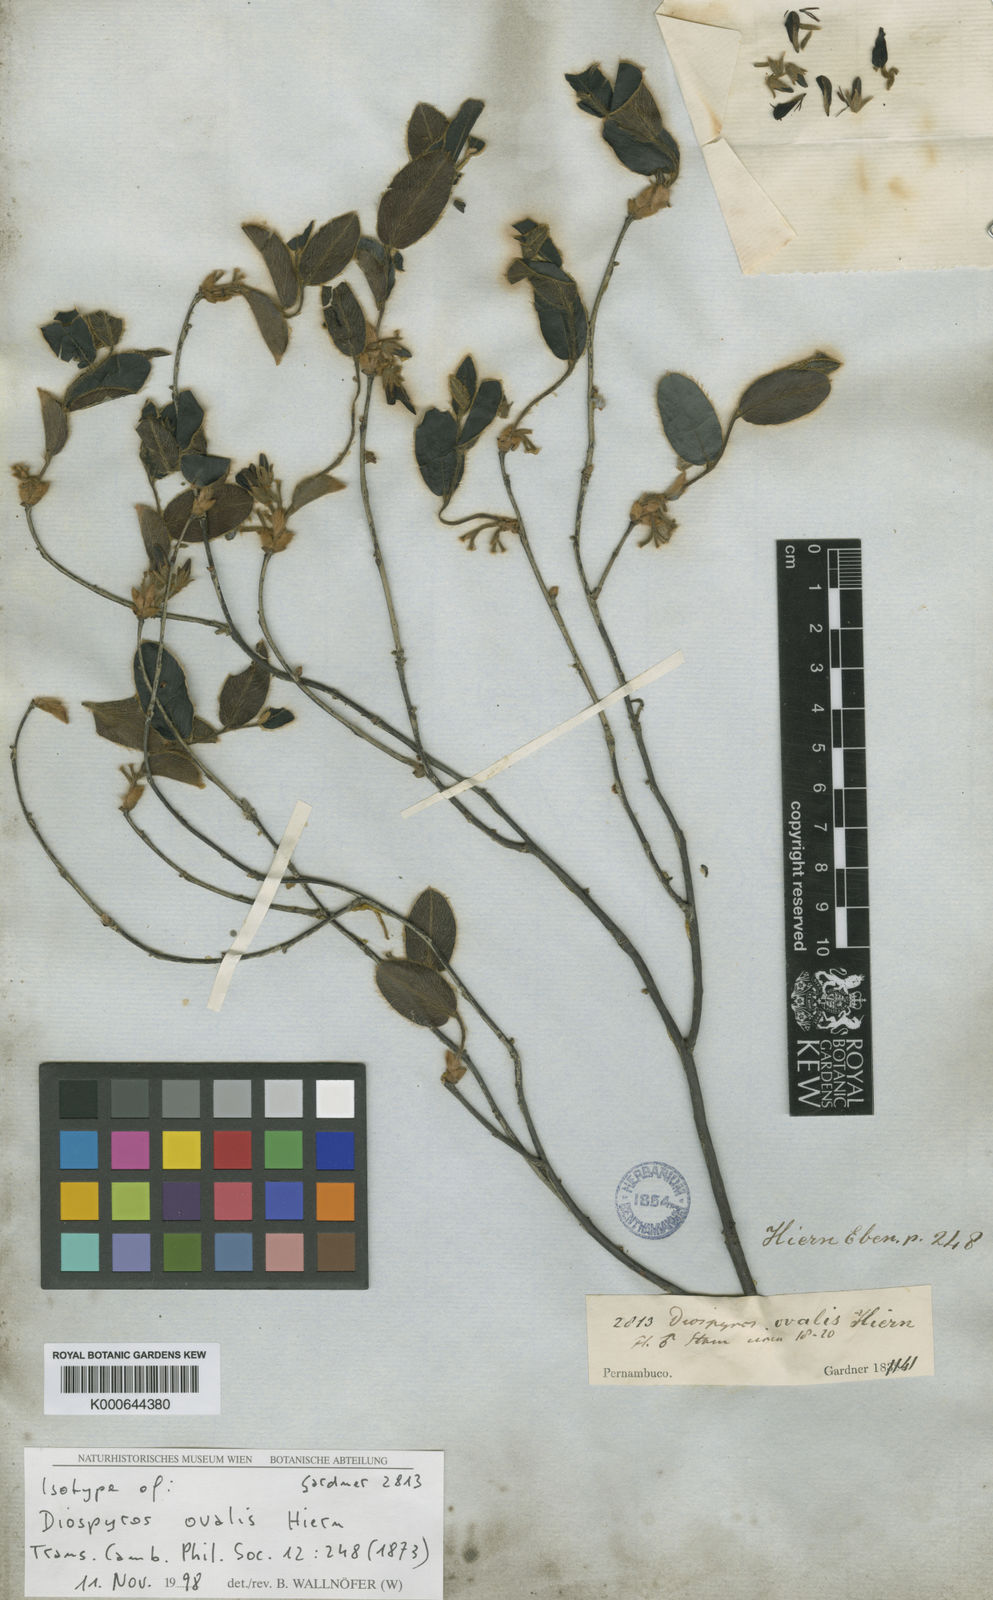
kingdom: Plantae
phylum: Tracheophyta
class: Magnoliopsida
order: Ericales
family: Ebenaceae
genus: Diospyros
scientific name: Diospyros ovalis
